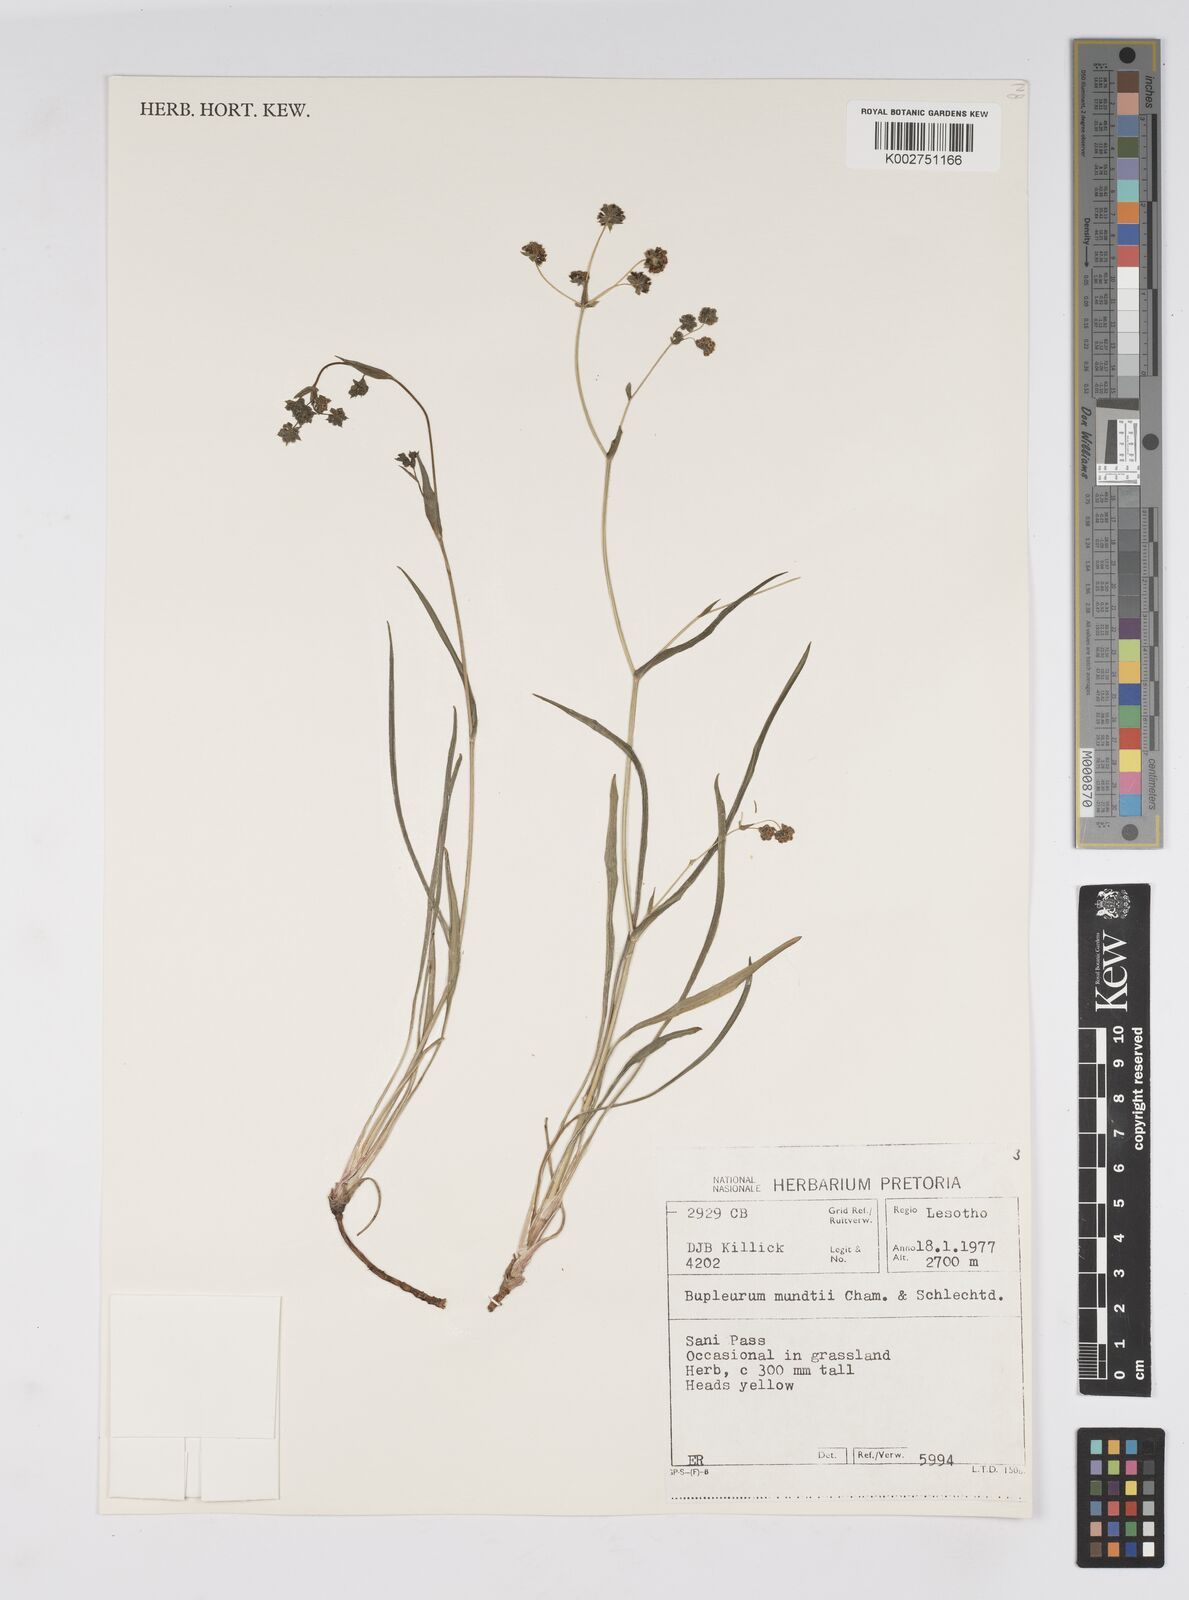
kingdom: Plantae
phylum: Tracheophyta
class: Magnoliopsida
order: Apiales
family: Apiaceae
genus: Bupleurum
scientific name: Bupleurum mundii
